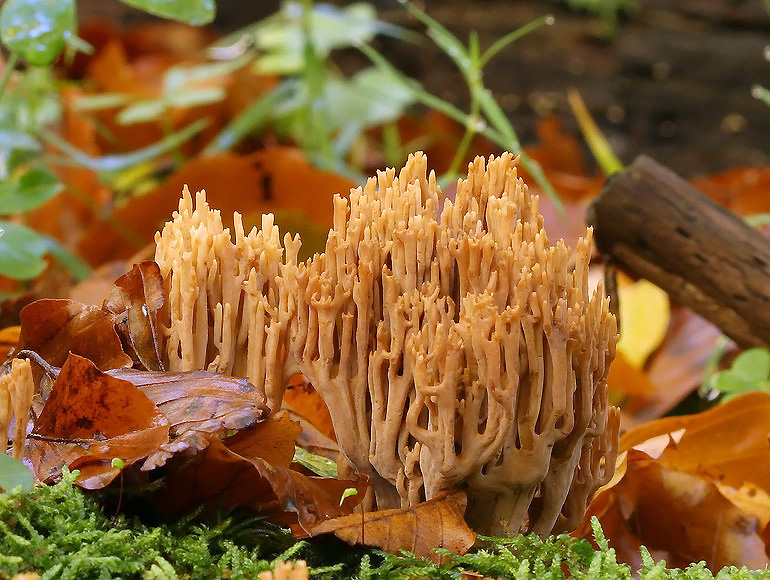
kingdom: Fungi
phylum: Basidiomycota
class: Agaricomycetes
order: Gomphales
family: Gomphaceae
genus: Ramaria
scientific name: Ramaria stricta
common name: rank koralsvamp
